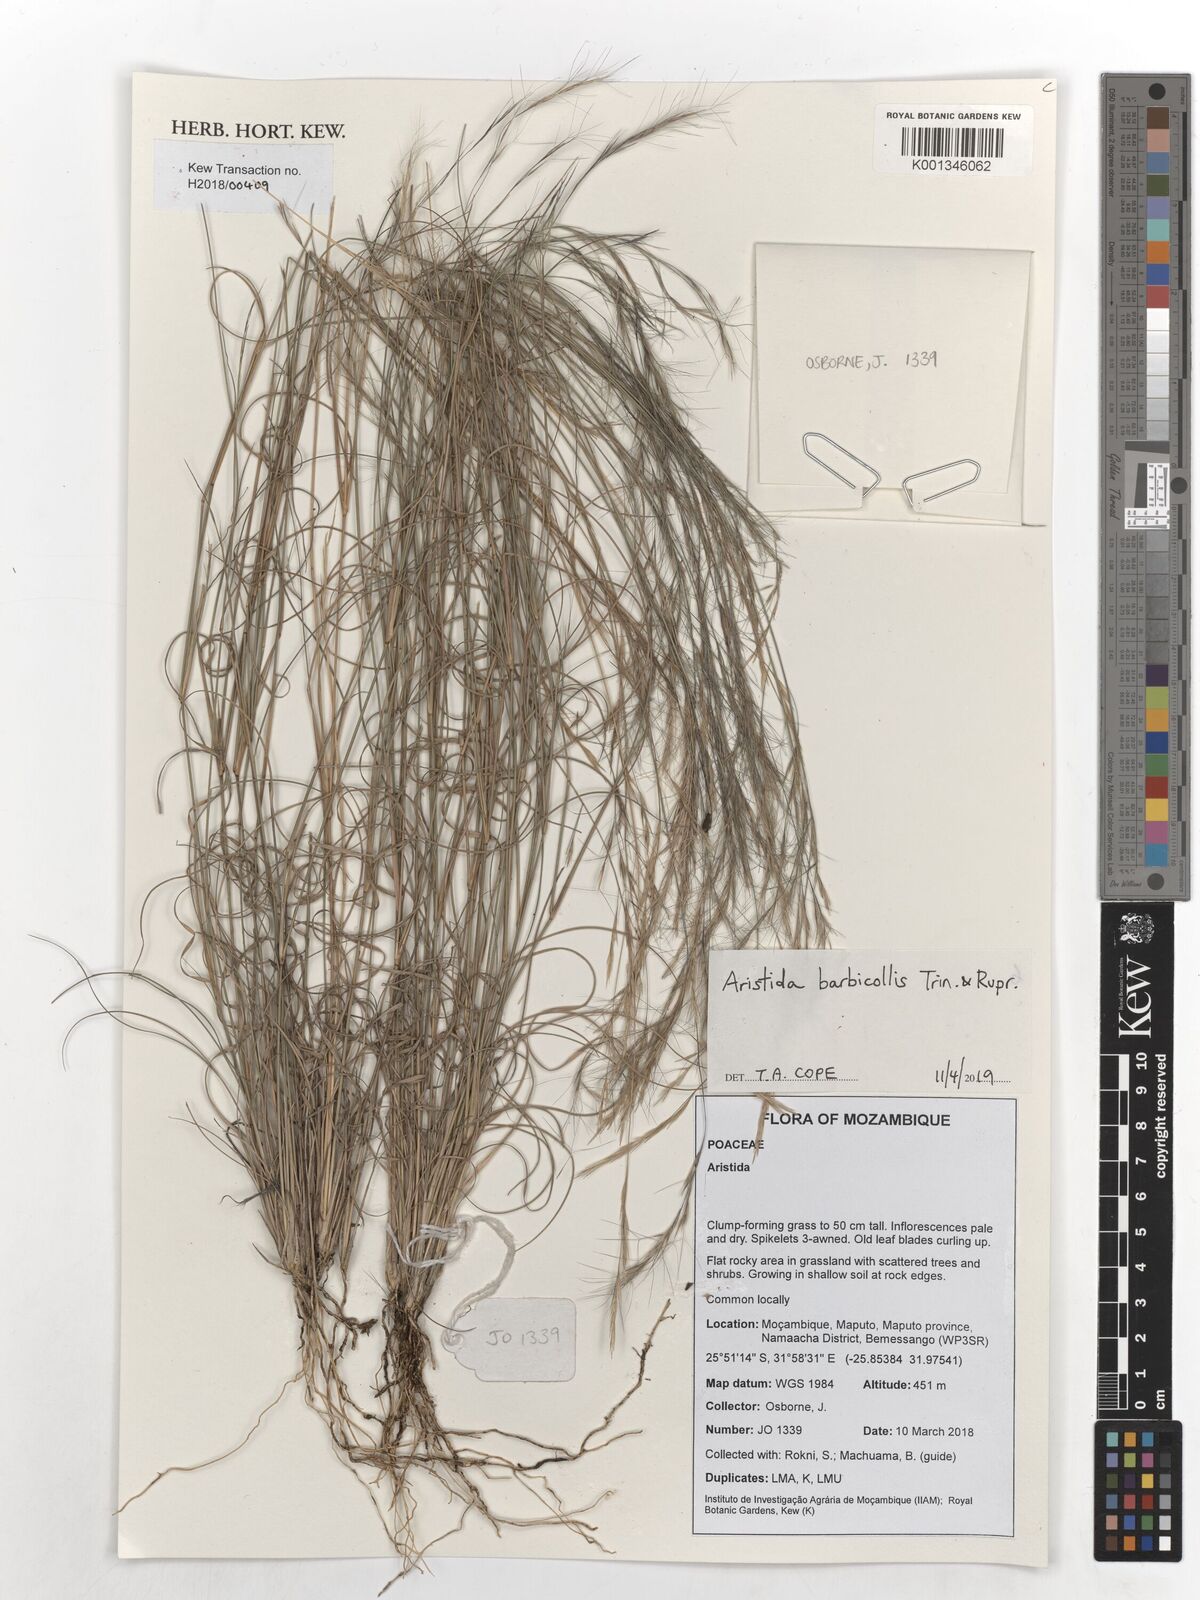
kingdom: Plantae
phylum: Tracheophyta
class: Liliopsida
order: Poales
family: Poaceae
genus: Aristida
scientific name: Aristida barbicollis
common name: Spreading prickle grass
